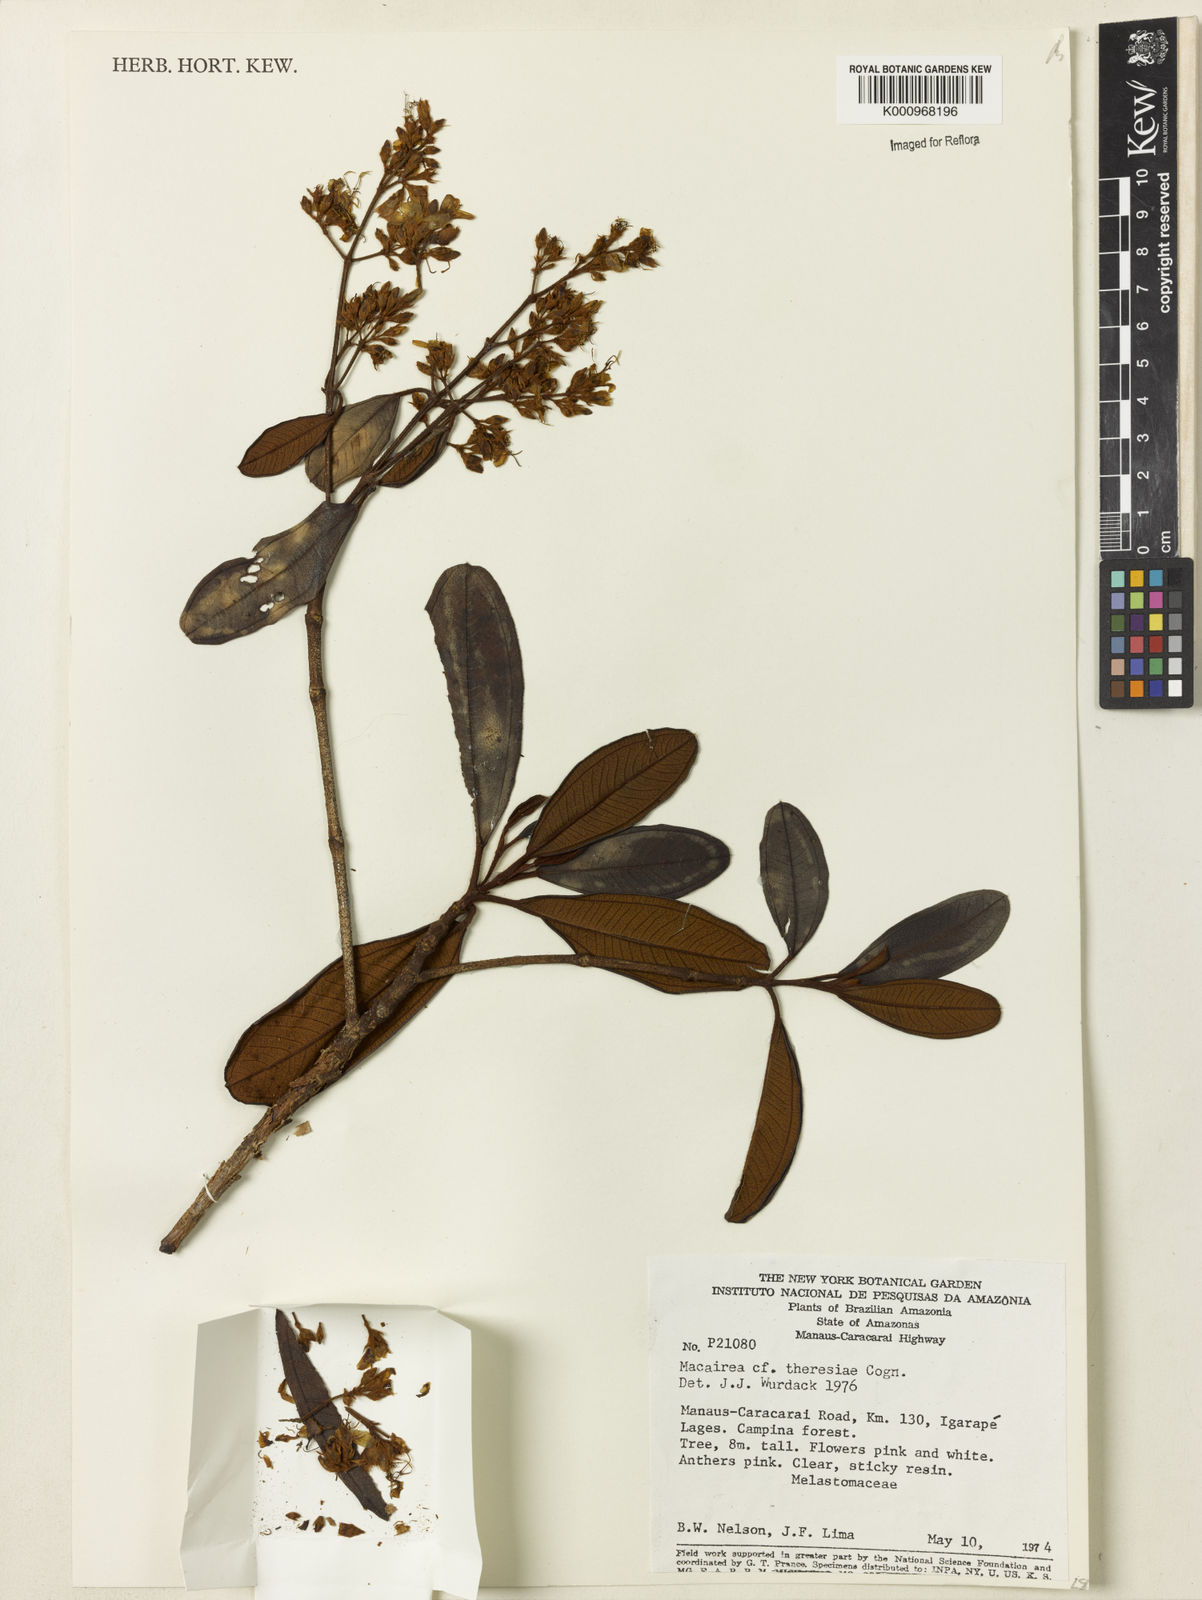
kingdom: Plantae
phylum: Tracheophyta
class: Magnoliopsida
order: Myrtales
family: Melastomataceae
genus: Macairea
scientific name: Macairea theresiae
